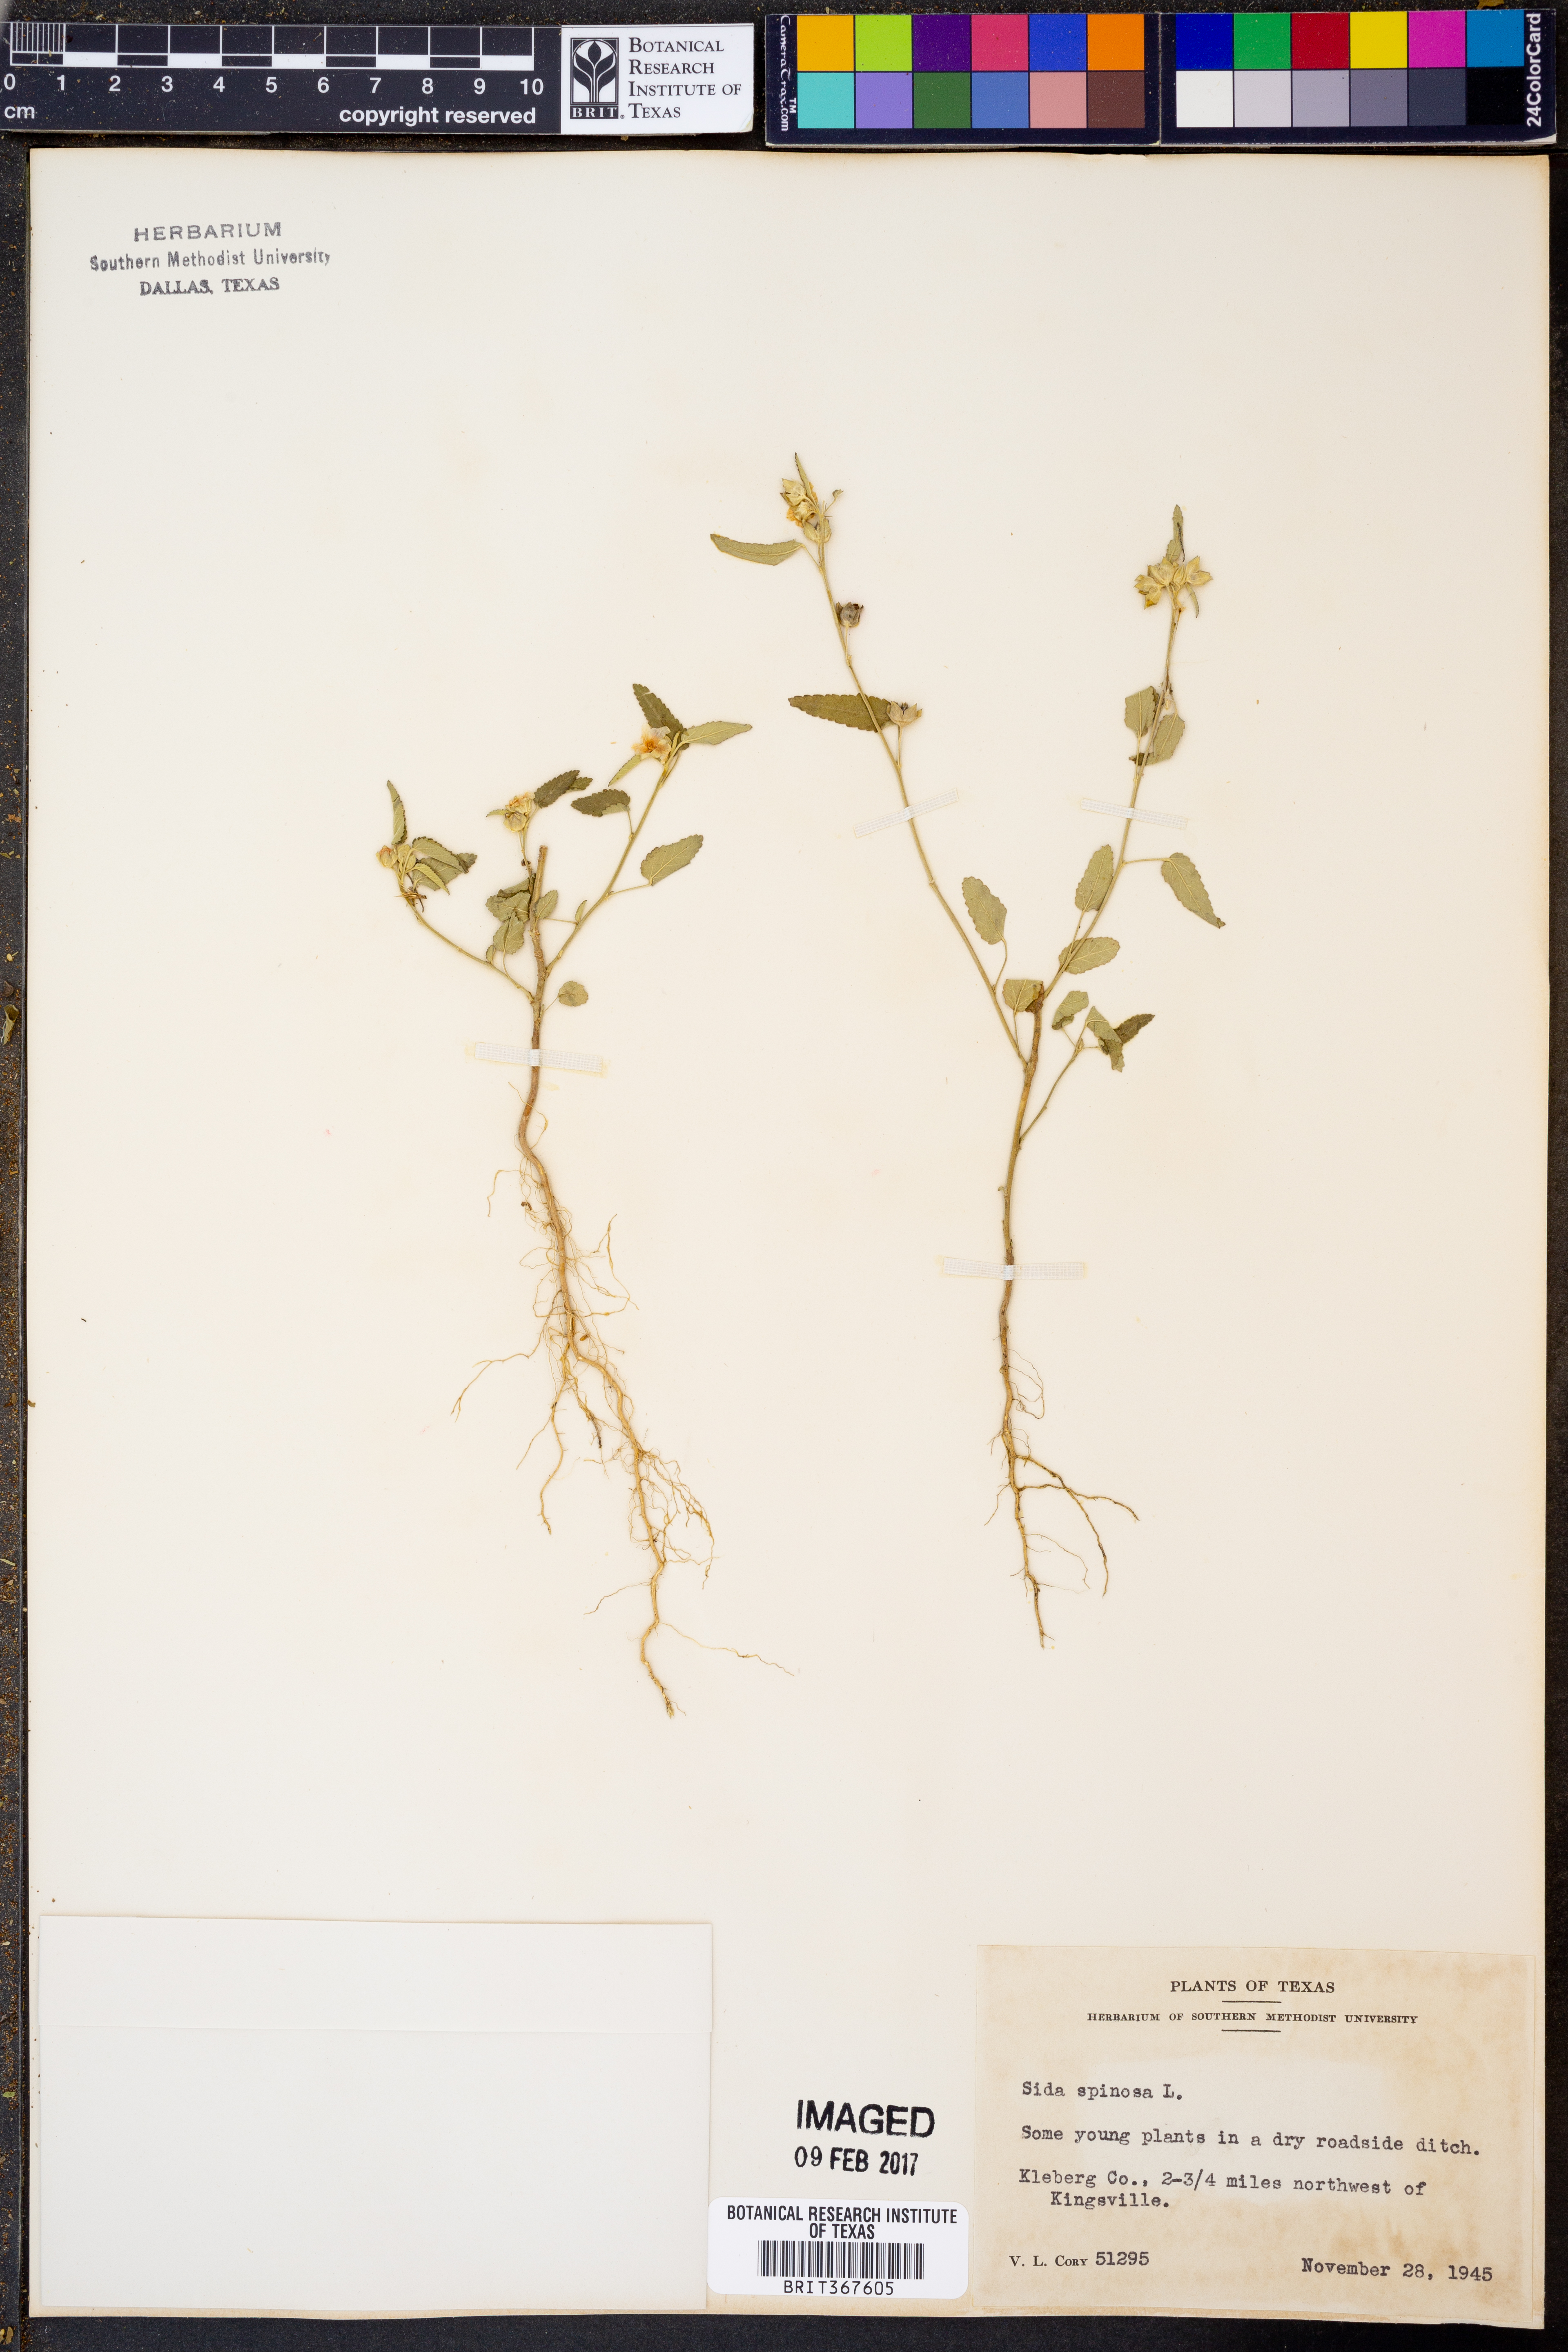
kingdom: Plantae
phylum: Tracheophyta
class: Magnoliopsida
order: Malvales
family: Malvaceae
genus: Sida
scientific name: Sida spinosa
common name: Prickly fanpetals
